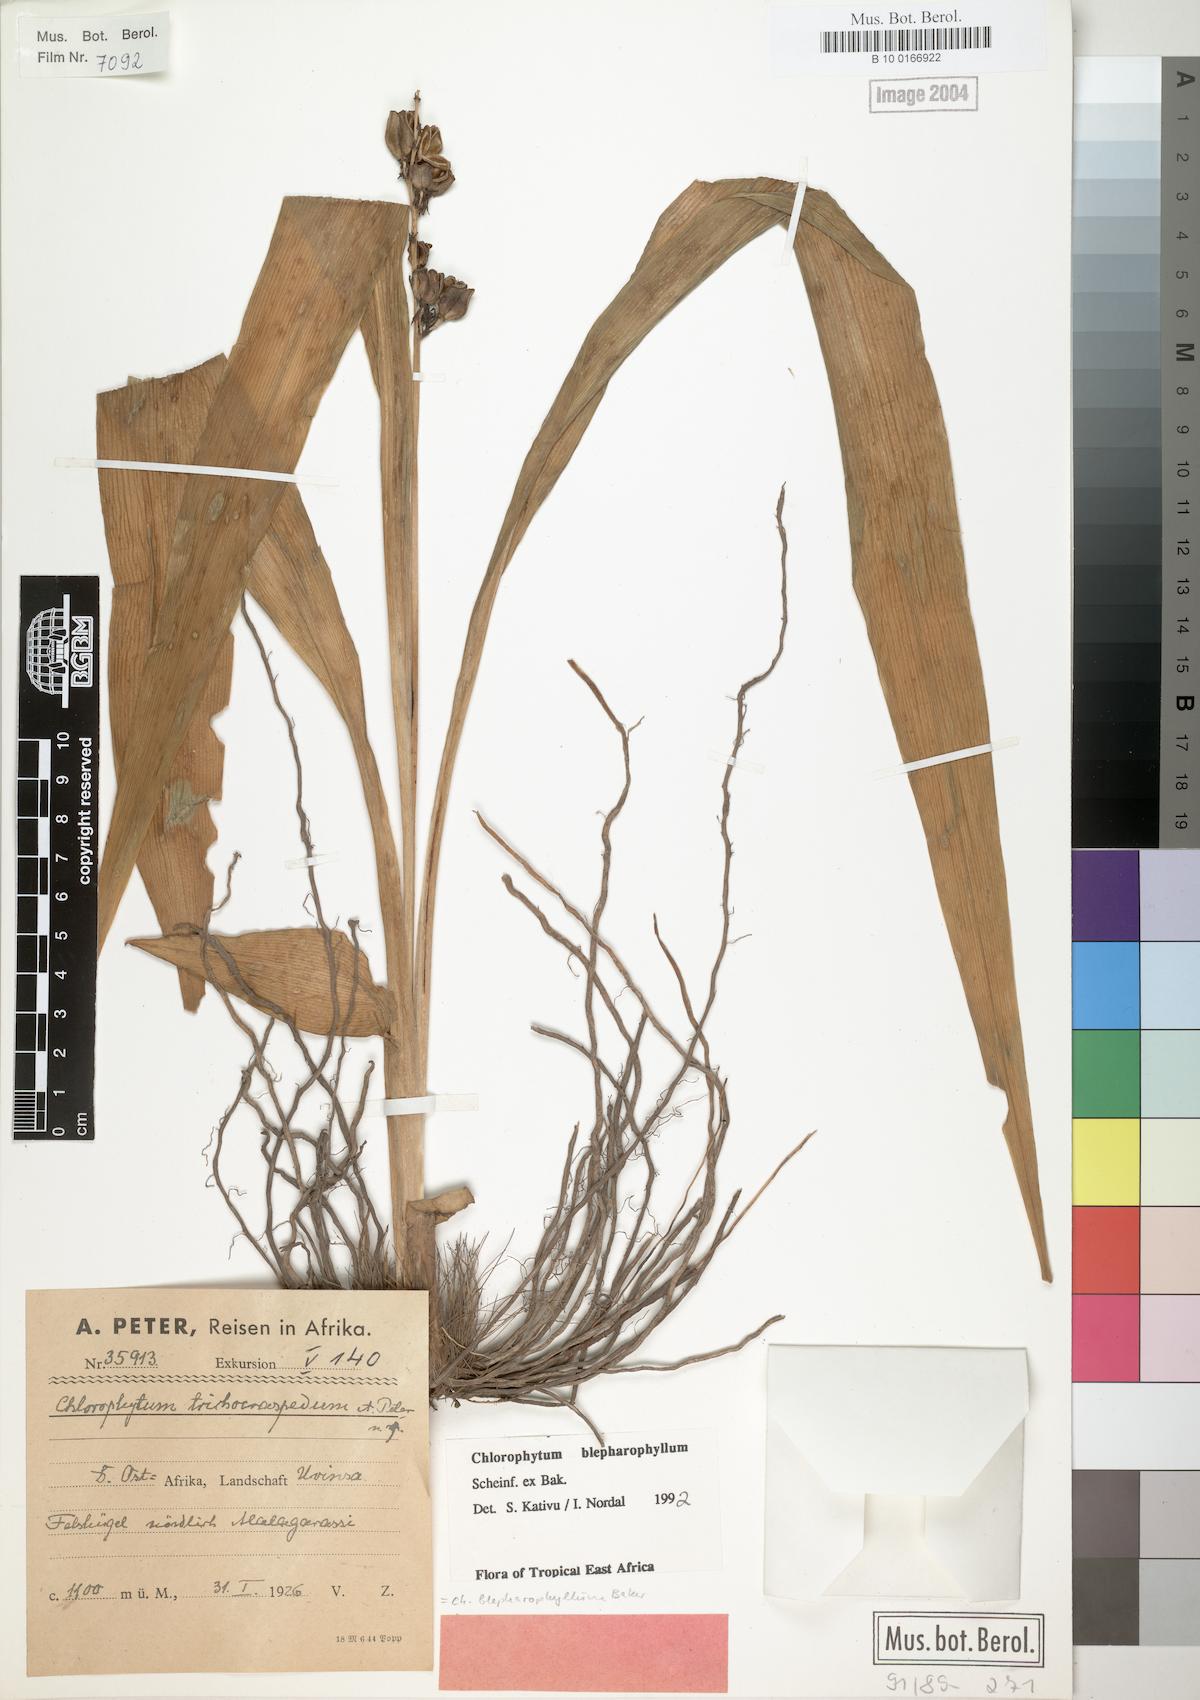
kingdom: Plantae
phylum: Tracheophyta
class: Liliopsida
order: Asparagales
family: Asparagaceae
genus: Chlorophytum
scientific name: Chlorophytum blepharophyllum
